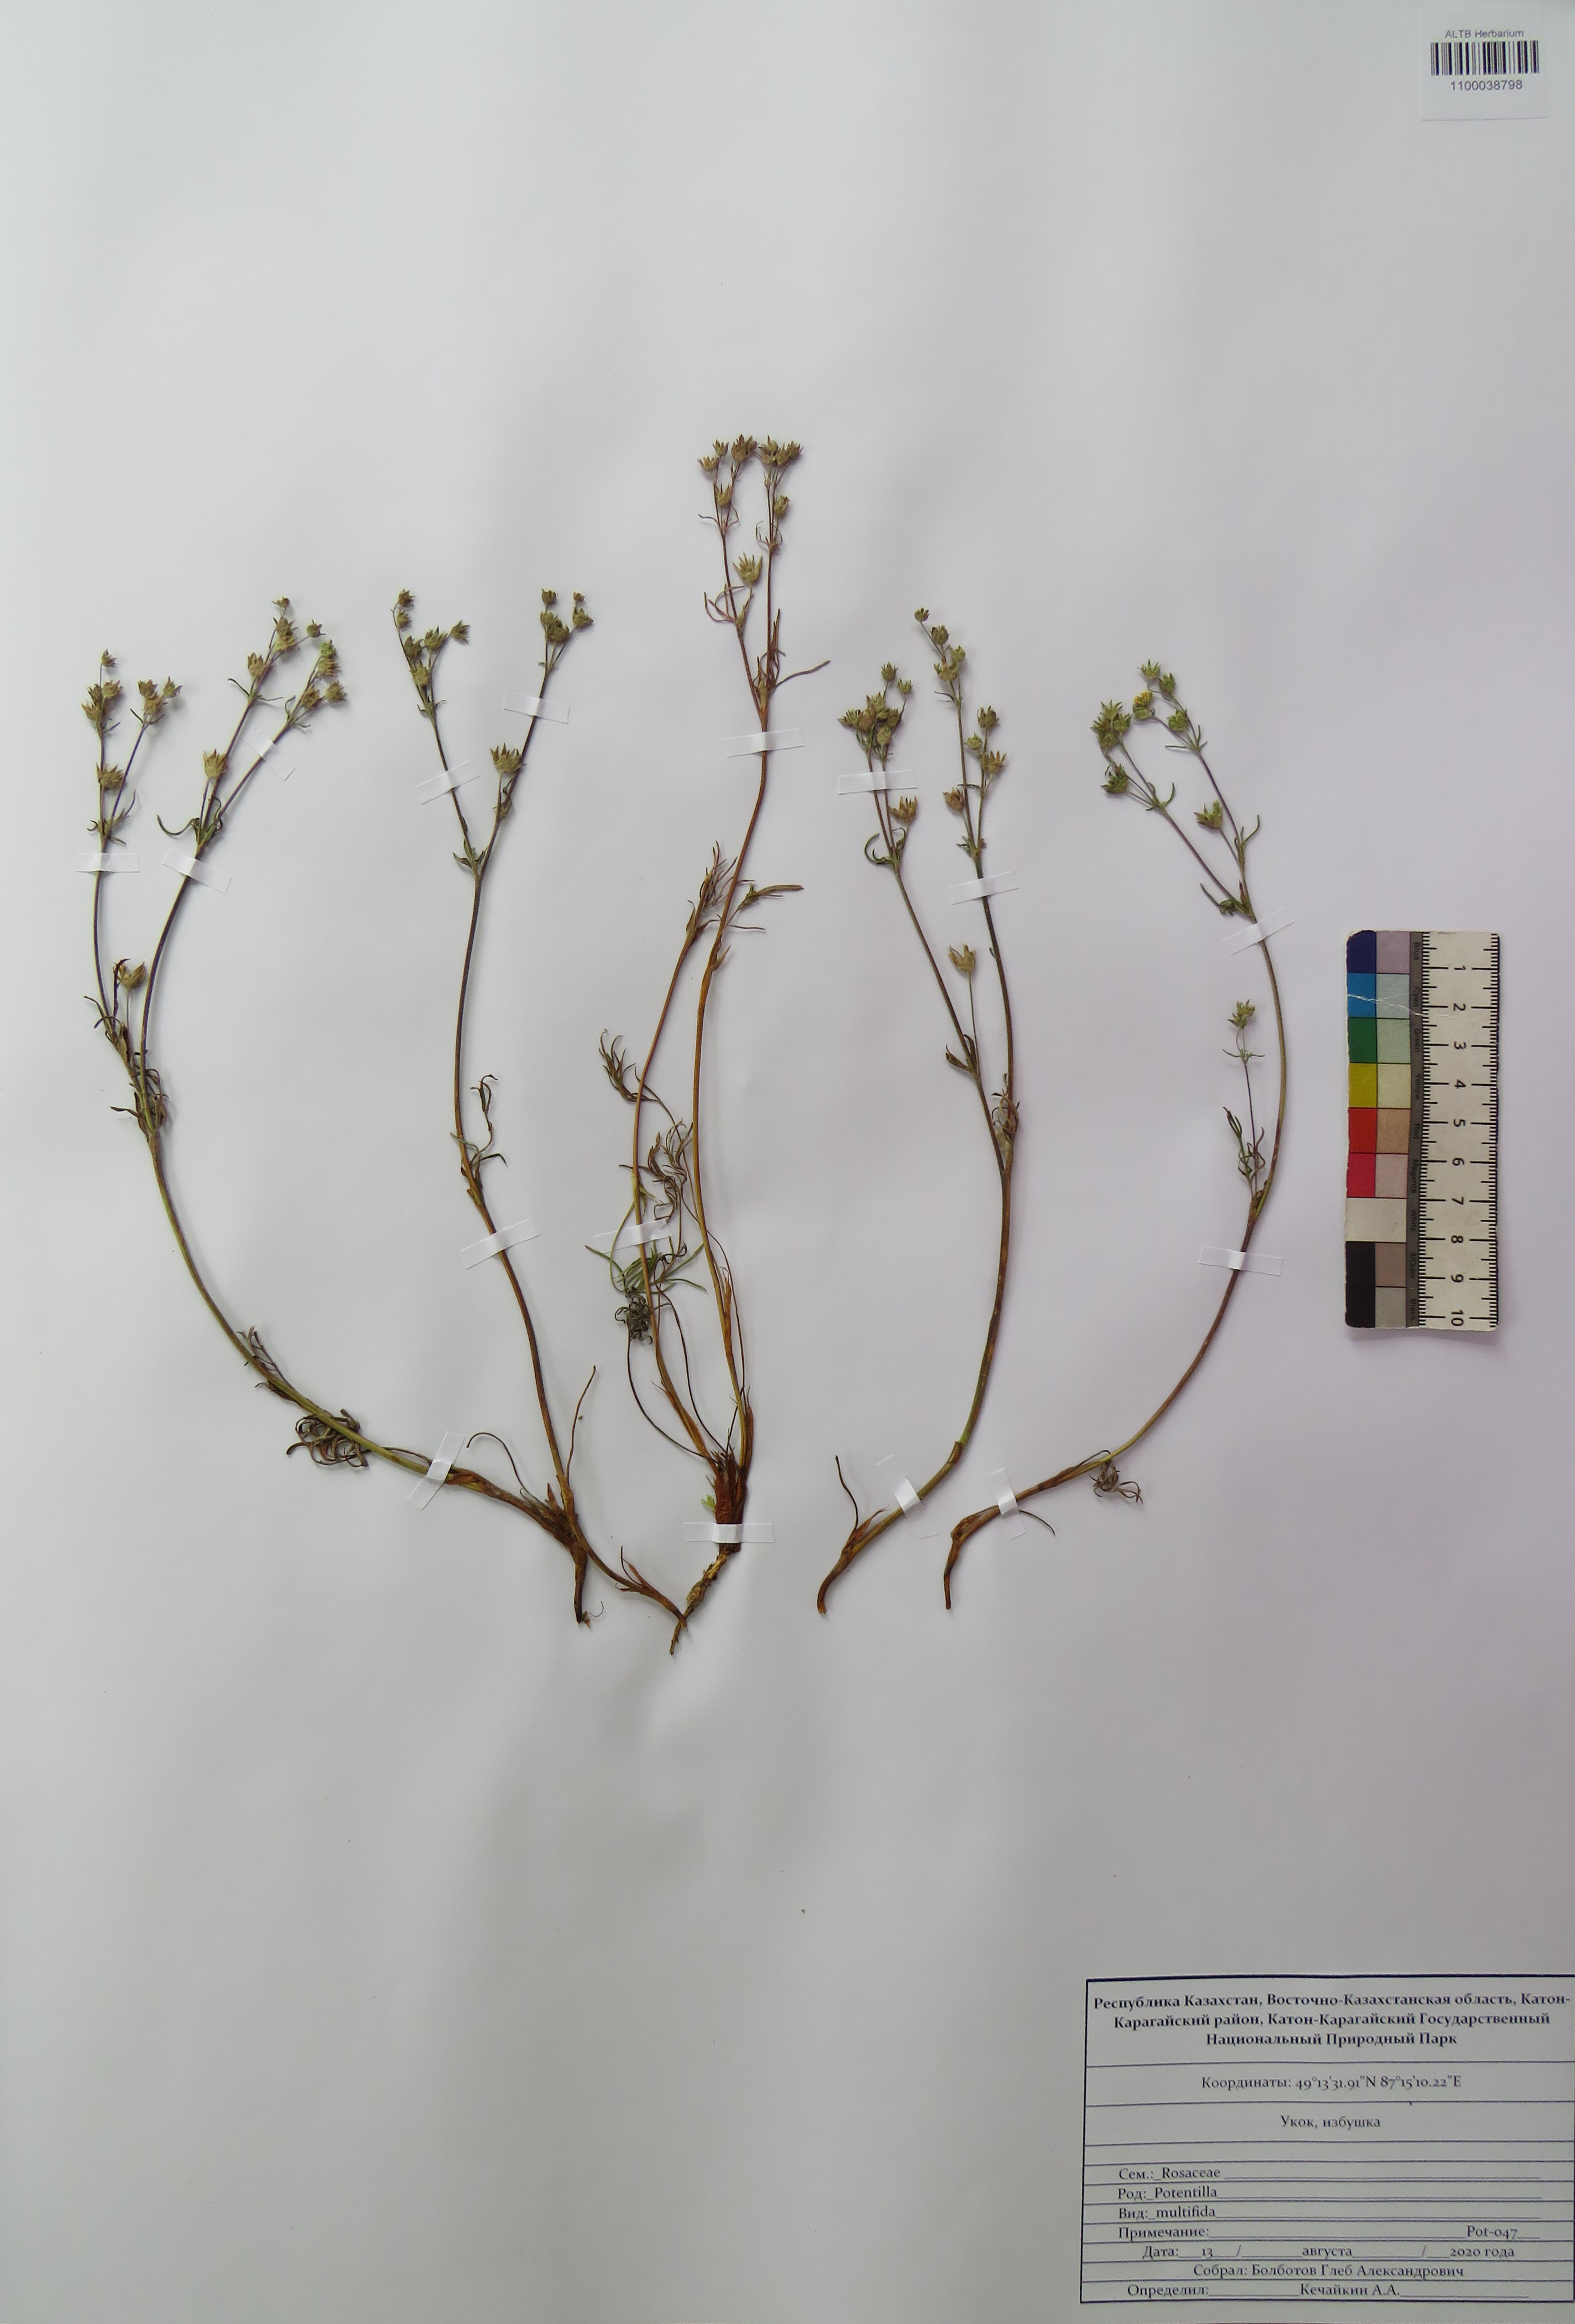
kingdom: Plantae
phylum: Tracheophyta
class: Magnoliopsida
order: Rosales
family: Rosaceae
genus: Potentilla
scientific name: Potentilla multifida
